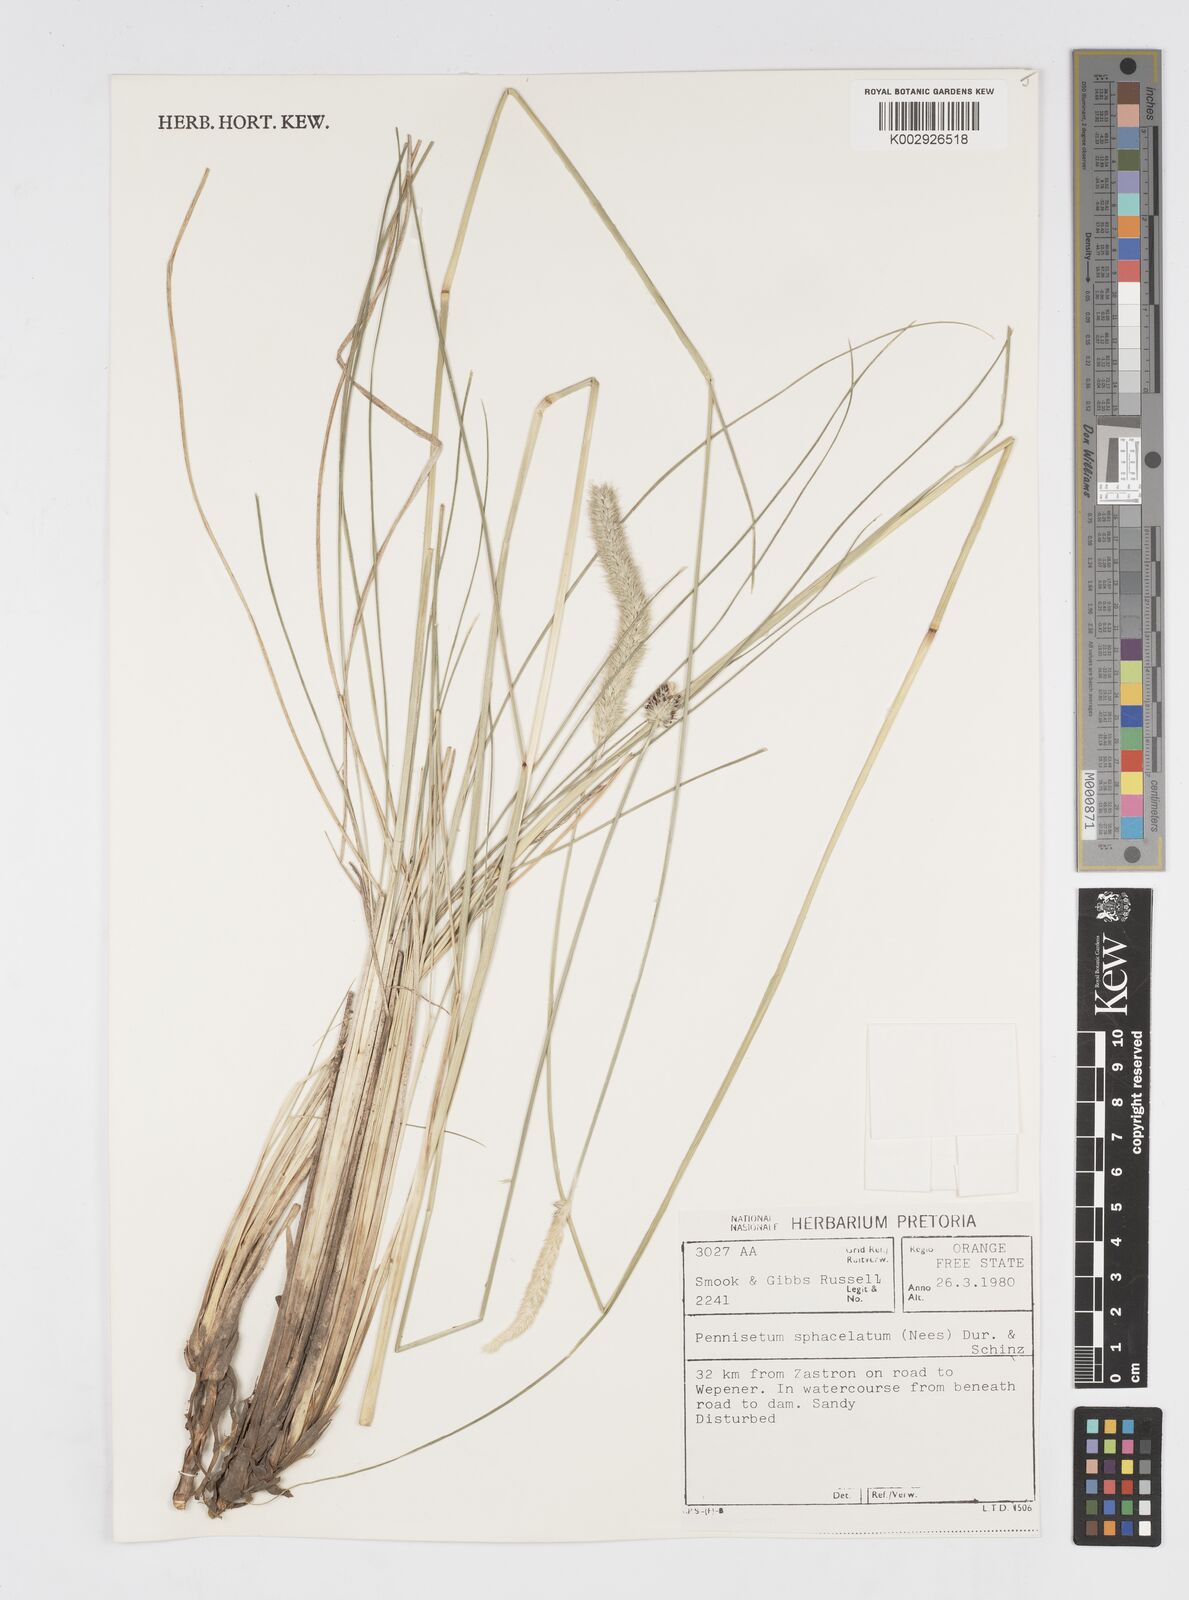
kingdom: Plantae
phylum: Tracheophyta
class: Liliopsida
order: Poales
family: Poaceae
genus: Cenchrus
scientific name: Cenchrus sphacelatus
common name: Bulgras
